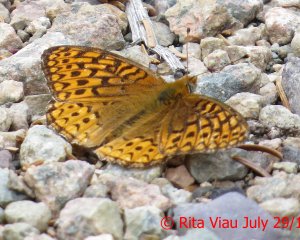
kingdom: Animalia
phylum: Arthropoda
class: Insecta
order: Lepidoptera
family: Nymphalidae
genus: Speyeria
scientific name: Speyeria atlantis
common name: Atlantis Fritillary
